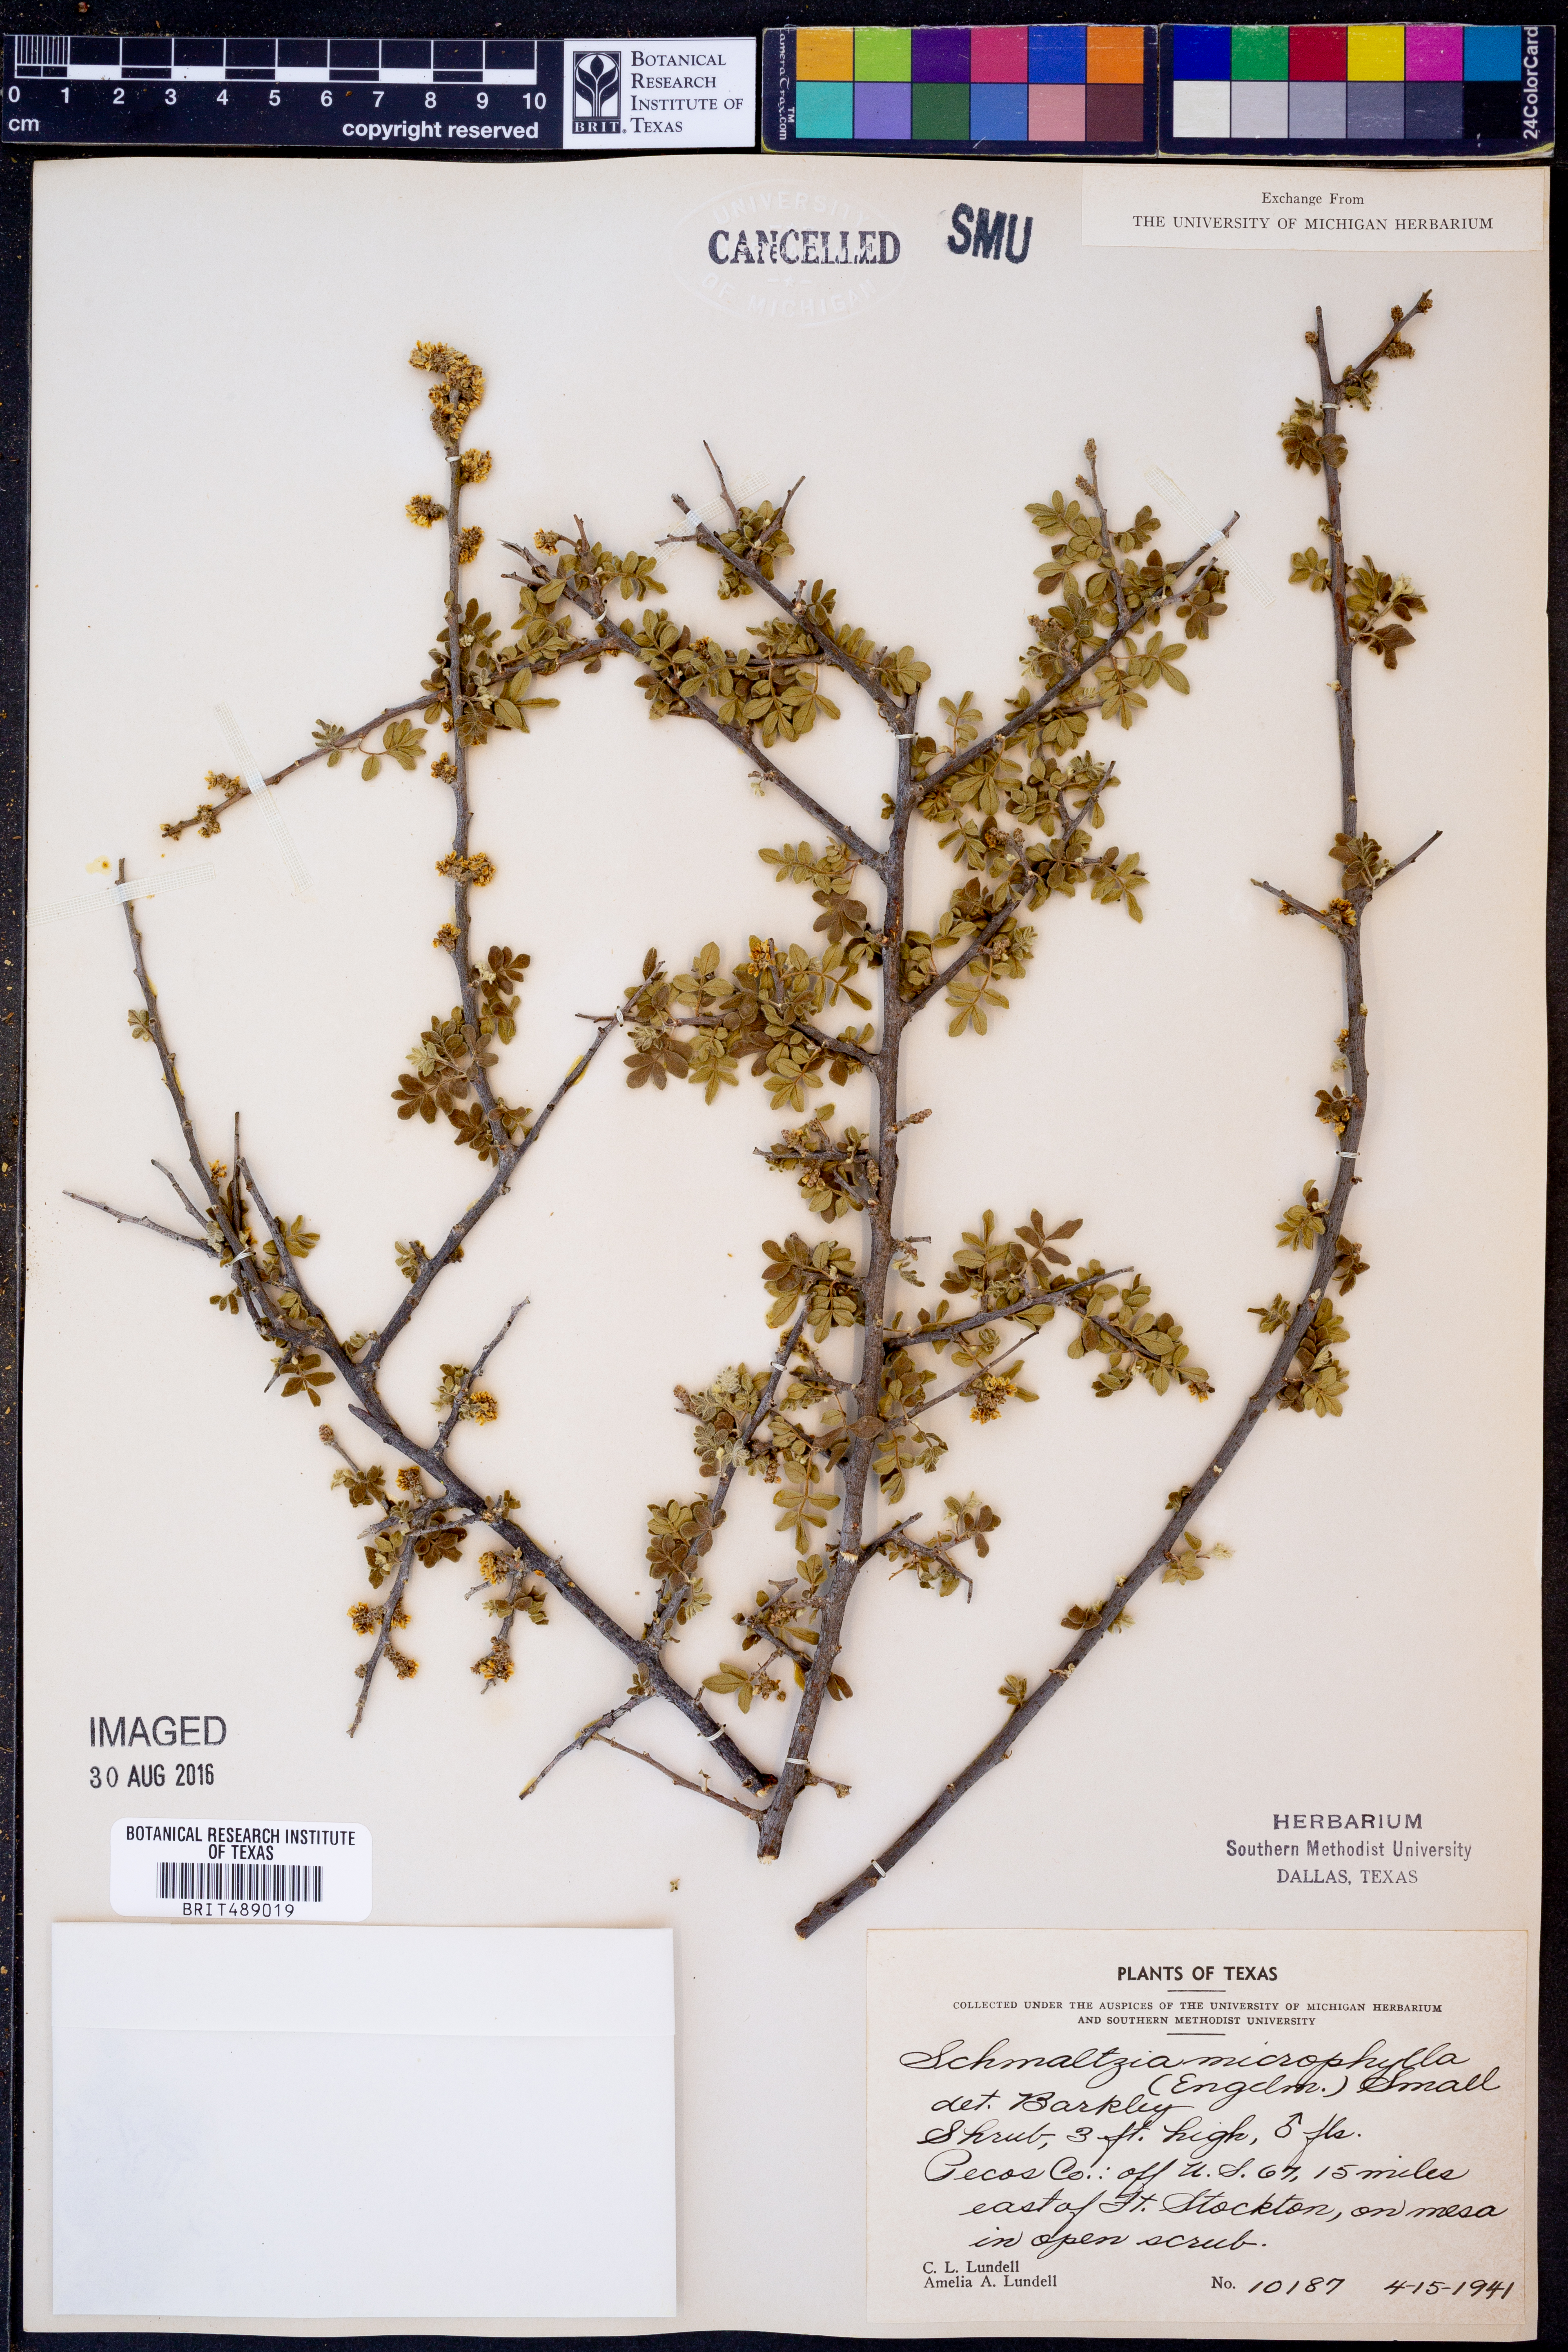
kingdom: Plantae
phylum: Tracheophyta
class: Magnoliopsida
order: Sapindales
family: Anacardiaceae
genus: Rhus
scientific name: Rhus microphylla
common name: Desert sumac
